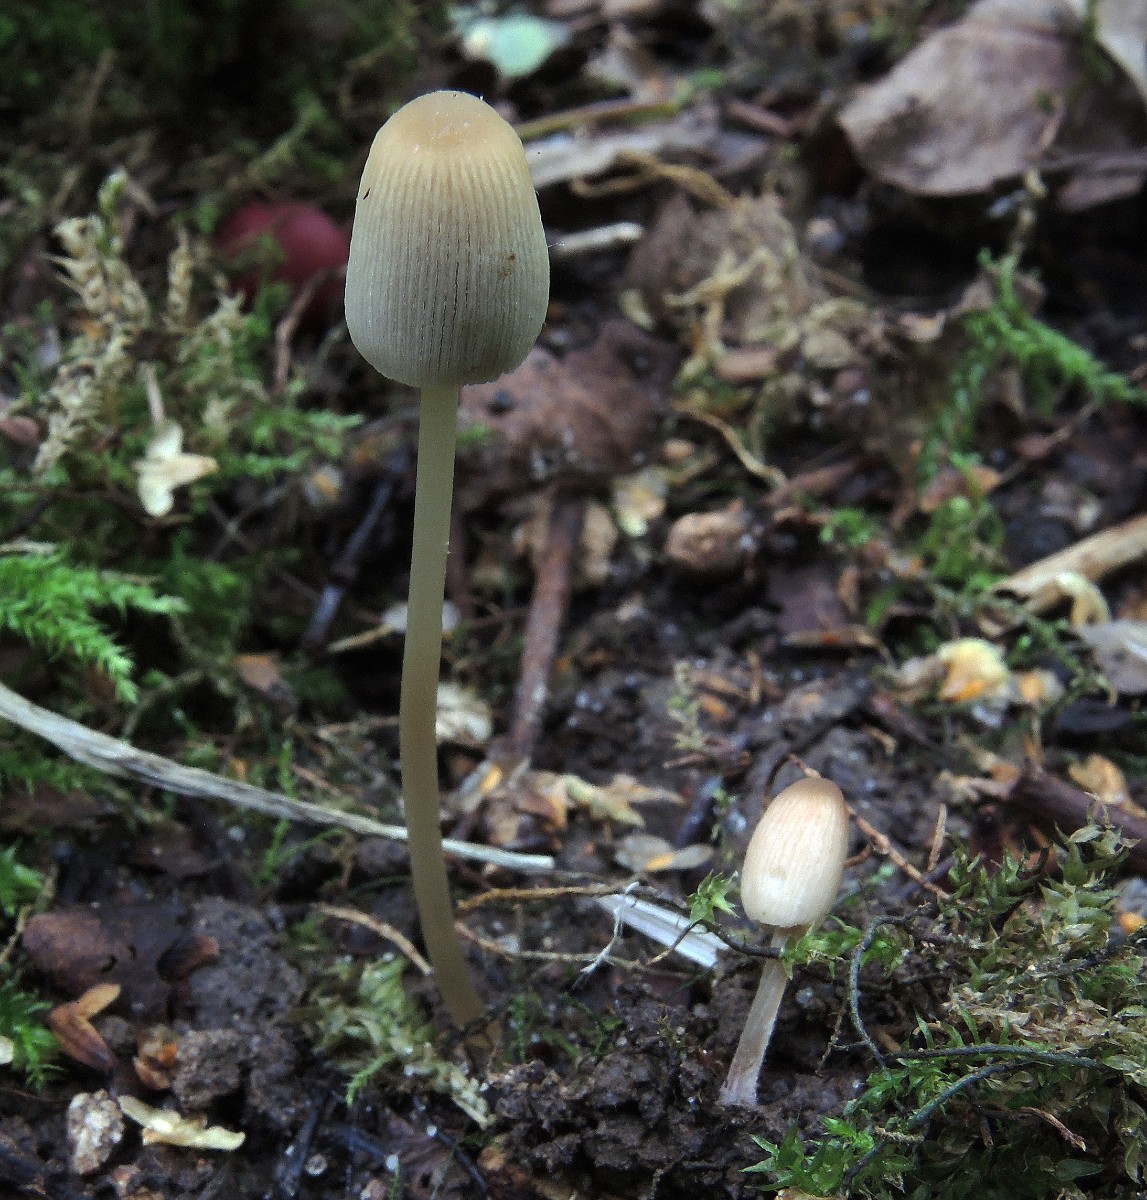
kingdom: Fungi
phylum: Basidiomycota
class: Agaricomycetes
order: Agaricales
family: Psathyrellaceae
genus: Parasola
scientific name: Parasola kuehneri
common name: skygge-hjulhat
